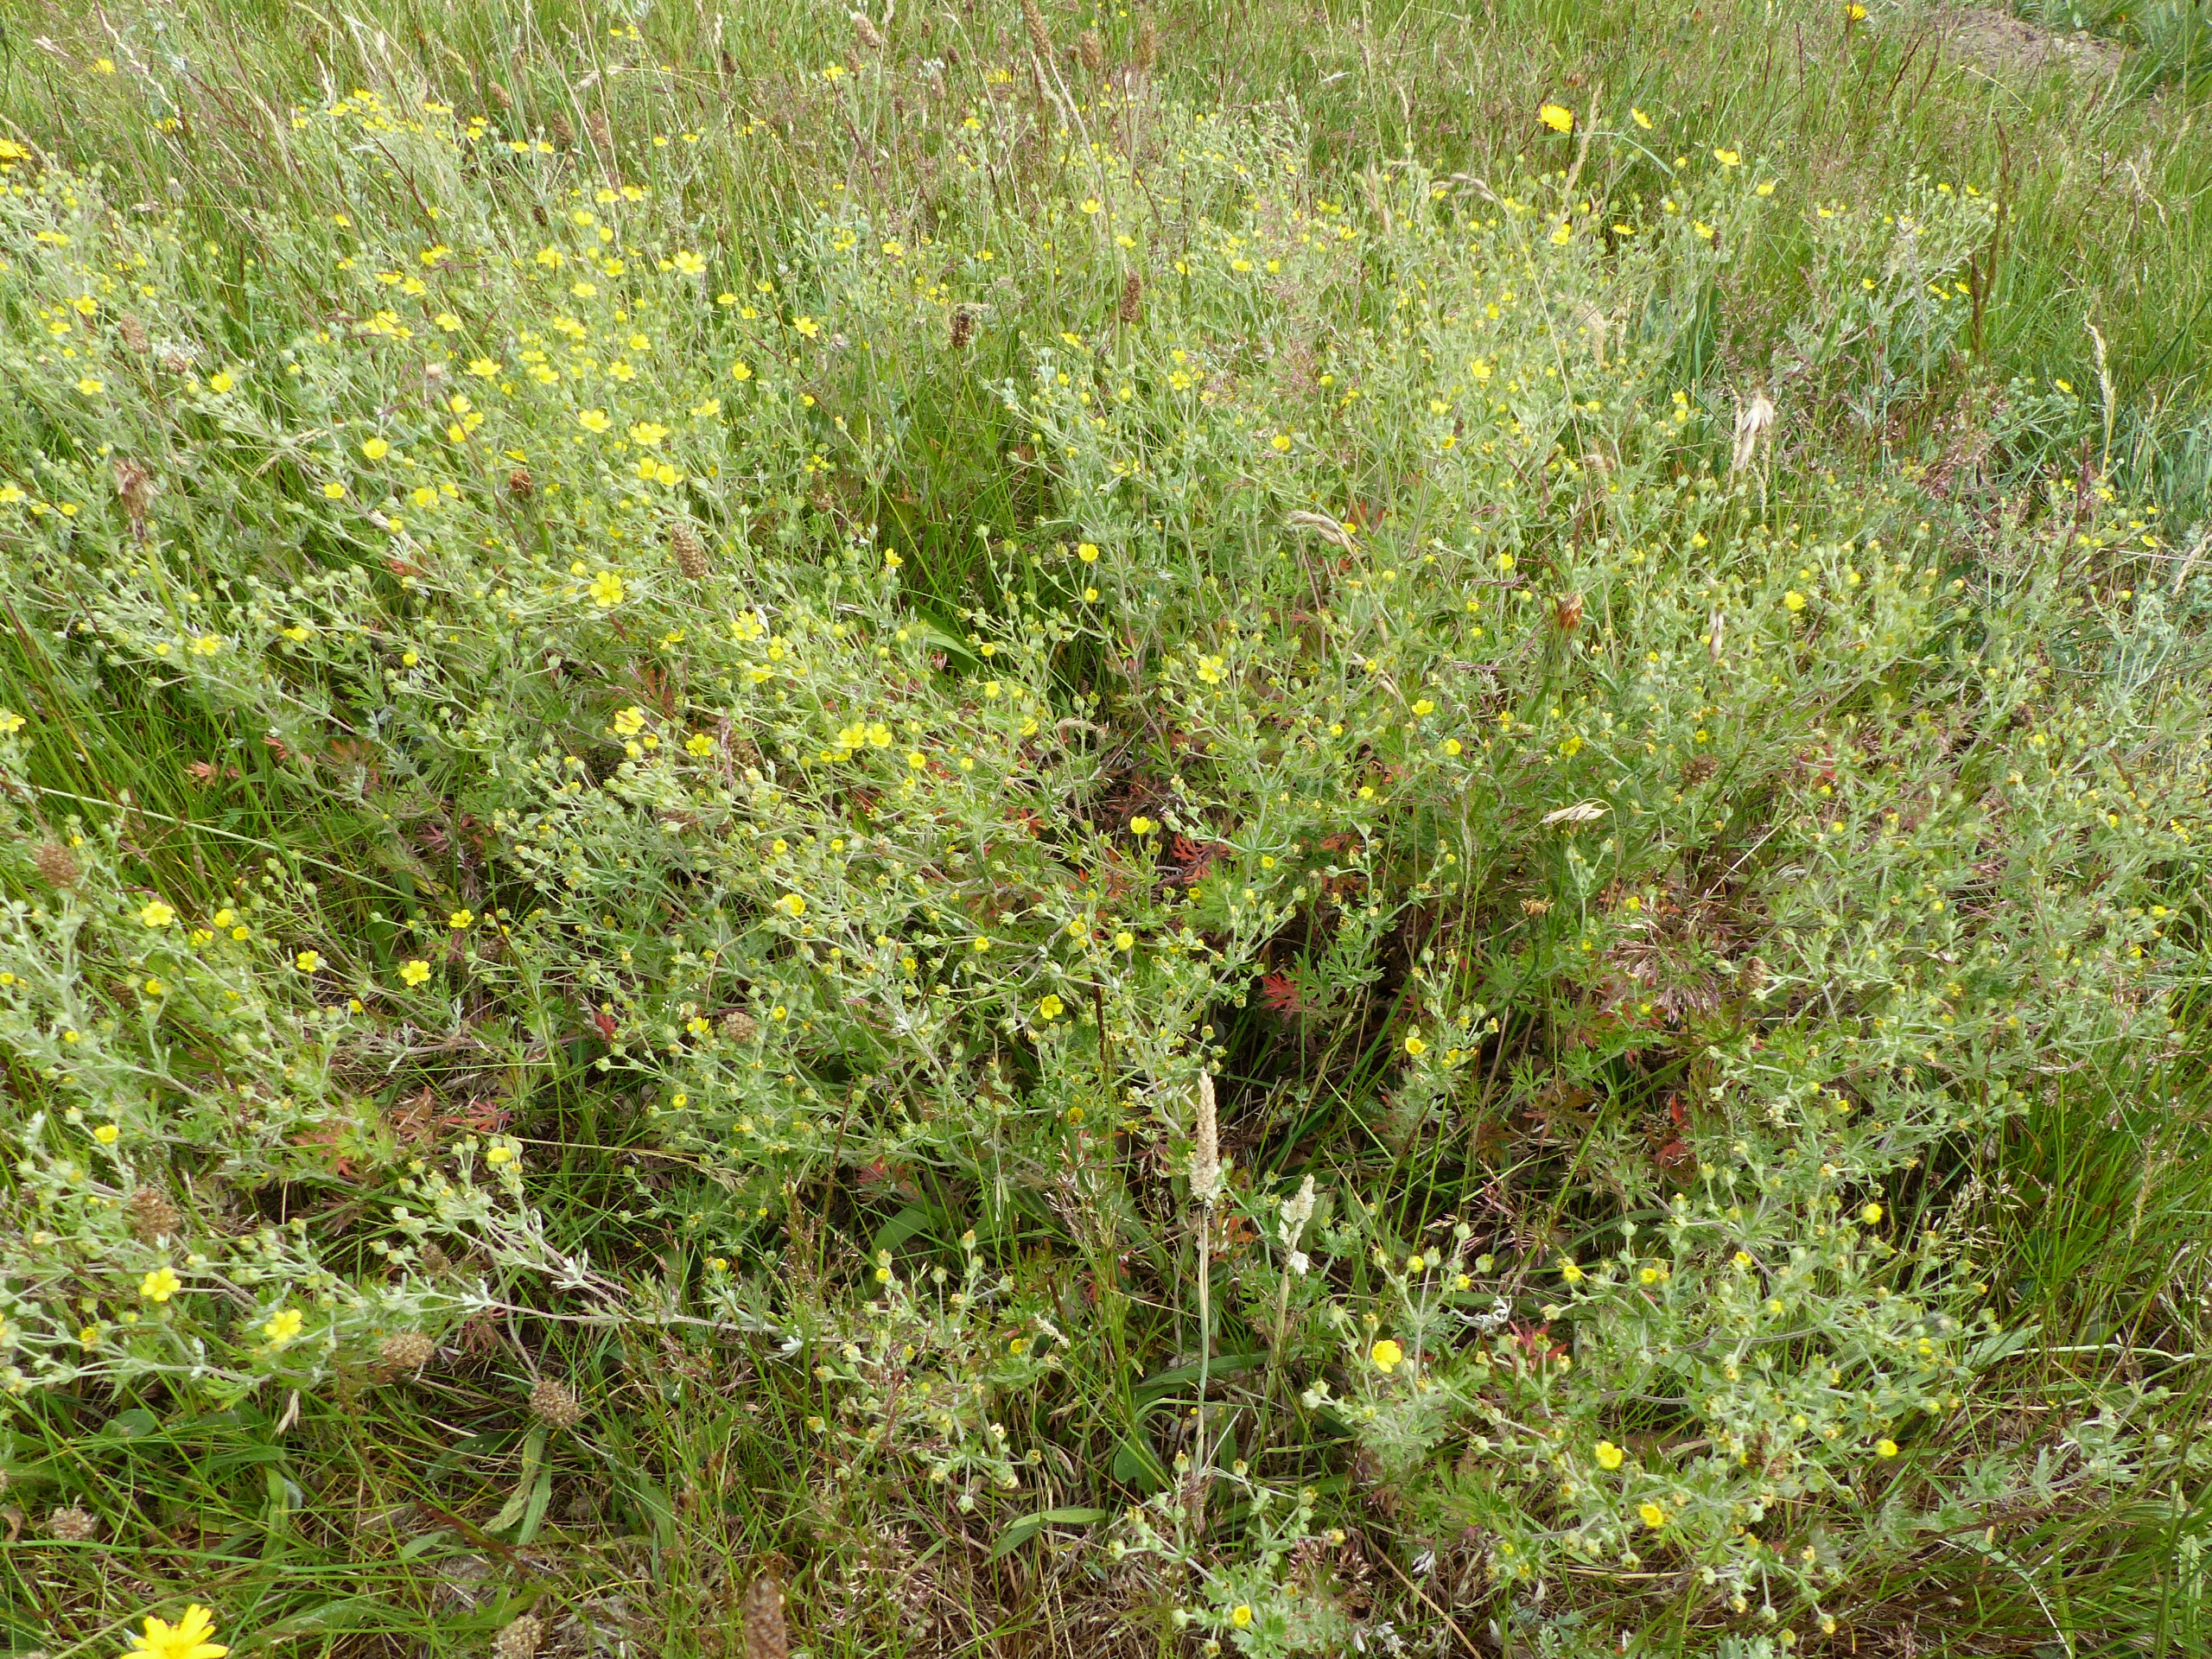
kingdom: Plantae
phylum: Tracheophyta
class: Magnoliopsida
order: Rosales
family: Rosaceae
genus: Potentilla
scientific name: Potentilla argentea
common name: Sølv-potentil
